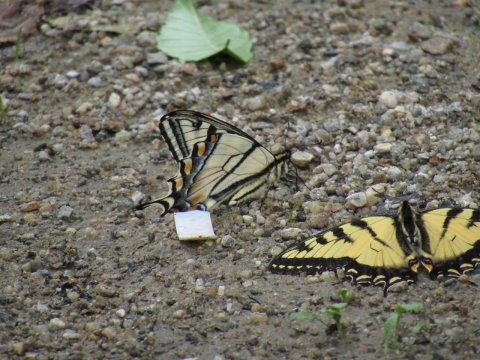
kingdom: Animalia
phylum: Arthropoda
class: Insecta
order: Lepidoptera
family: Papilionidae
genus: Pterourus
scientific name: Pterourus canadensis
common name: Canadian Tiger Swallowtail
